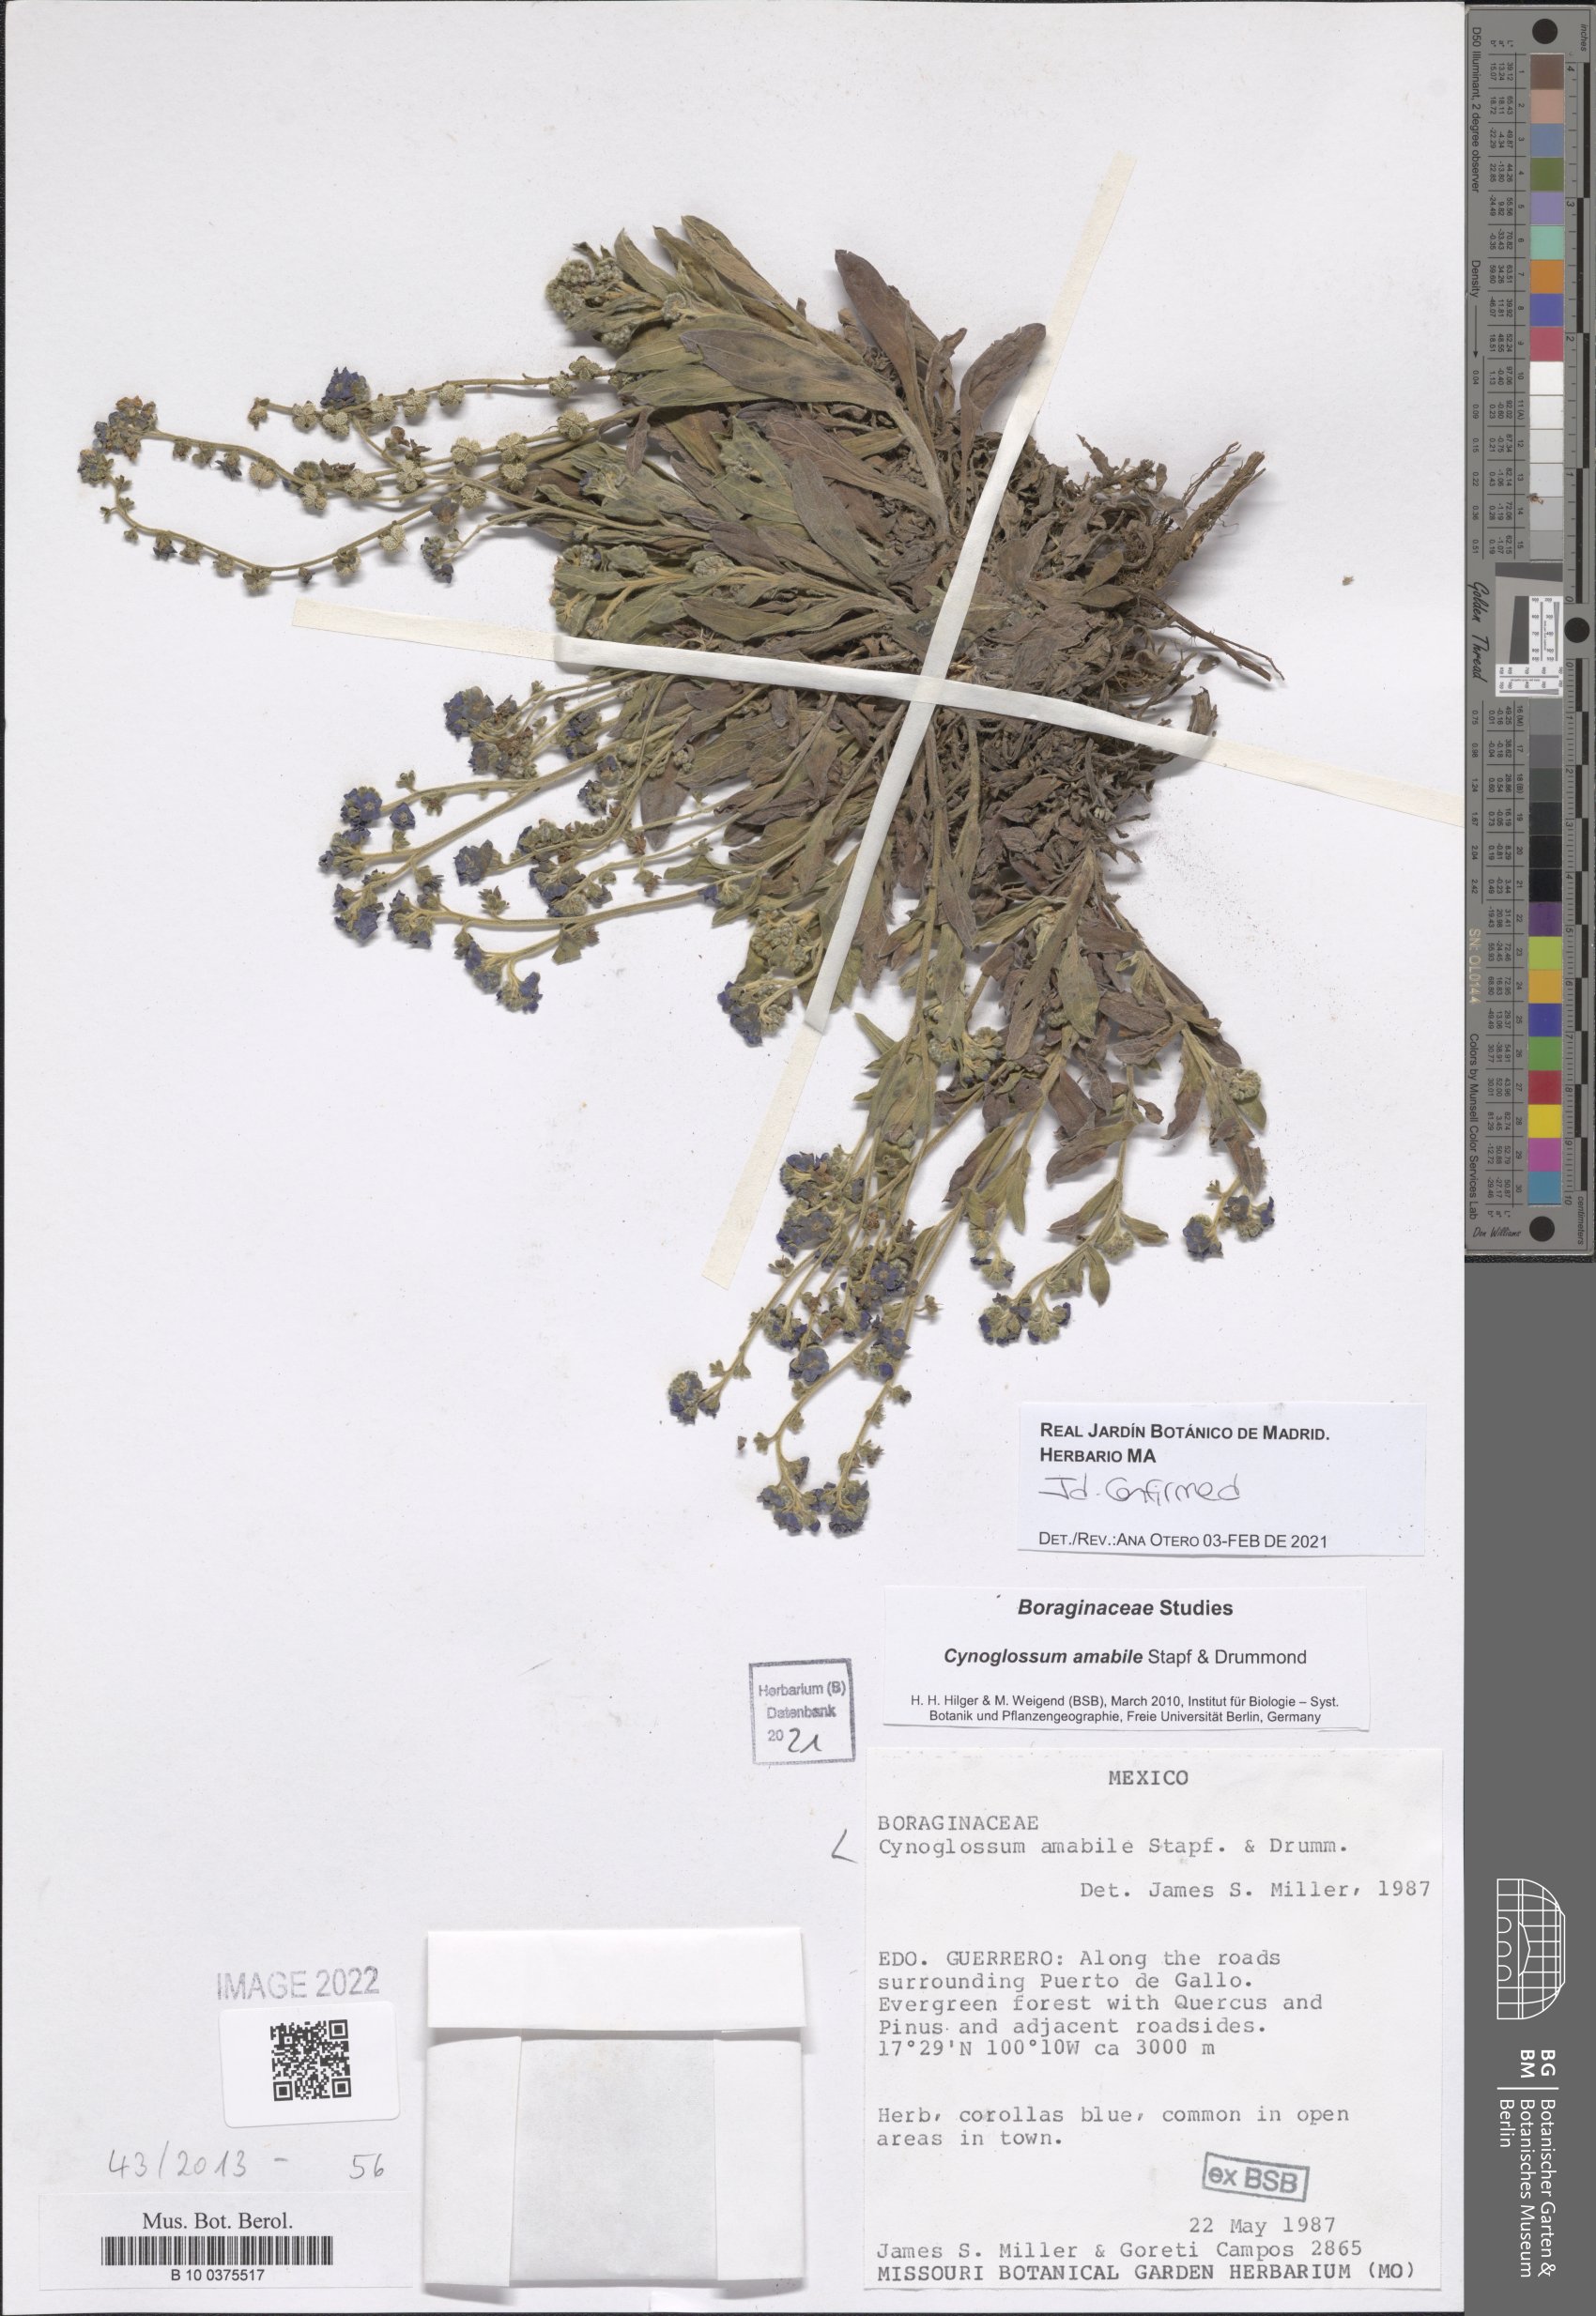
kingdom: Plantae
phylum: Tracheophyta
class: Magnoliopsida
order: Boraginales
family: Boraginaceae
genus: Cynoglossum
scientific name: Cynoglossum amabile
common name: Chinese hound's tongue
